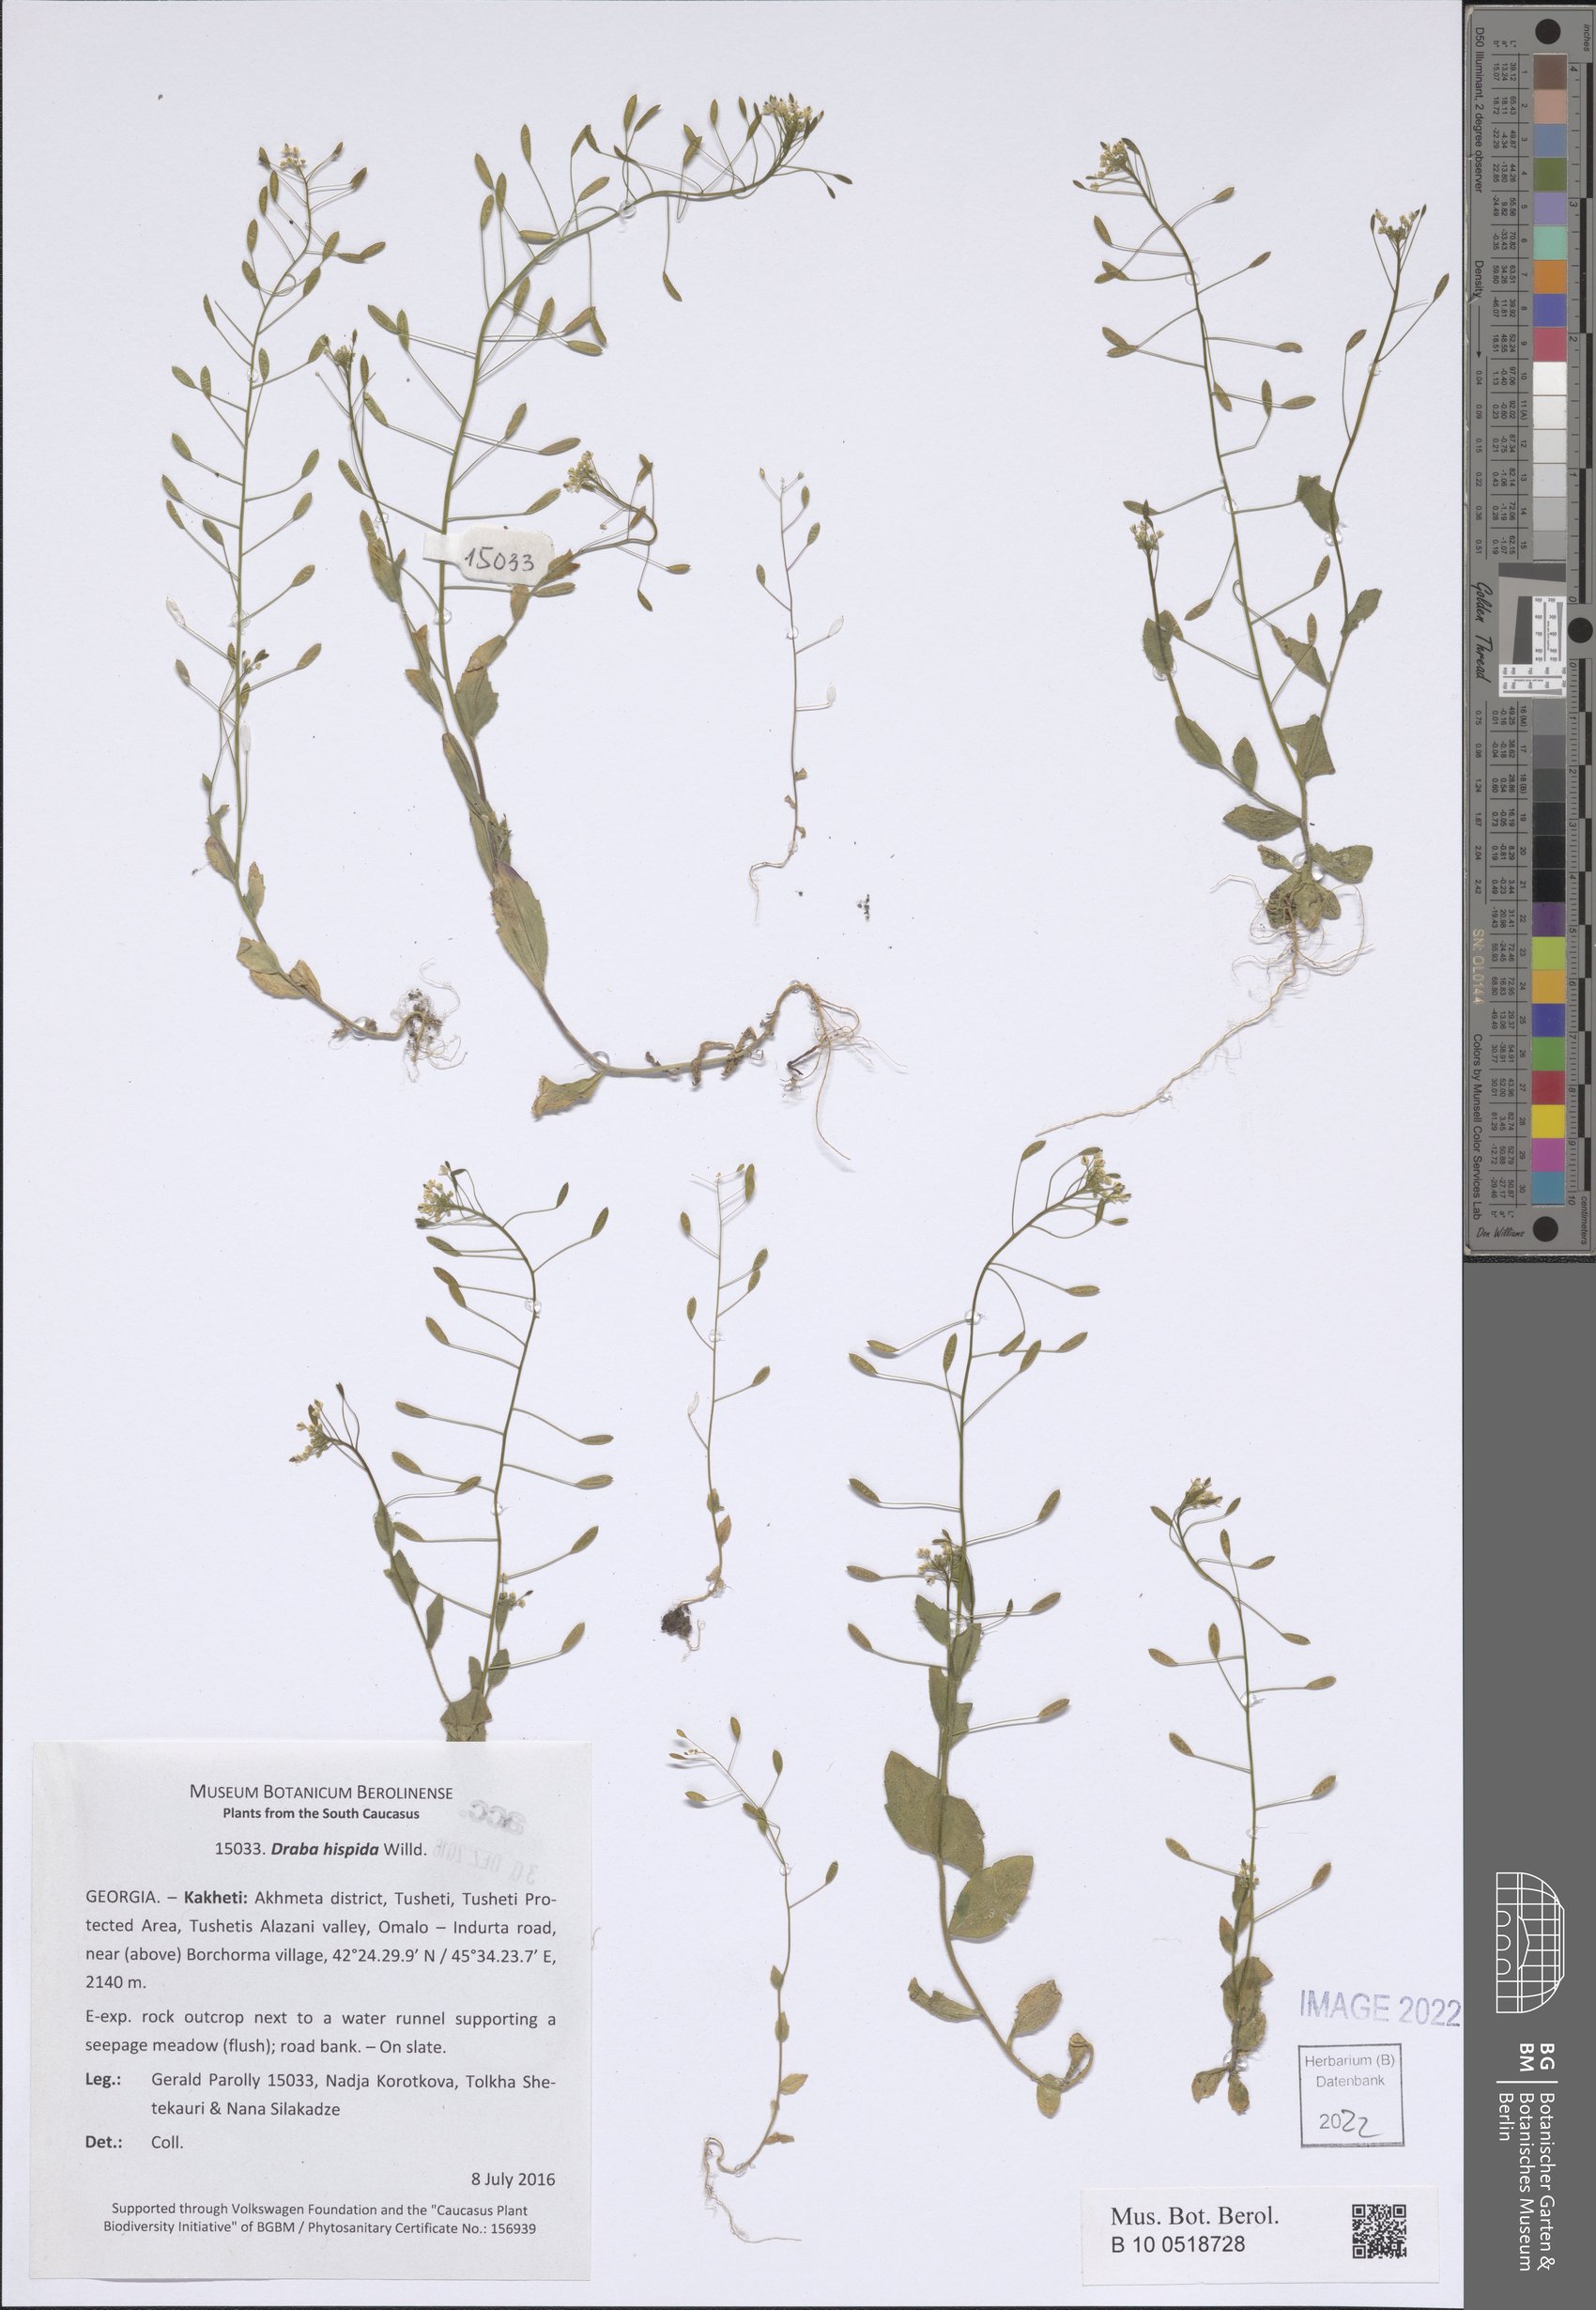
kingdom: Plantae
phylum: Tracheophyta
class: Magnoliopsida
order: Brassicales
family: Brassicaceae
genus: Draba
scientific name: Draba hispida
